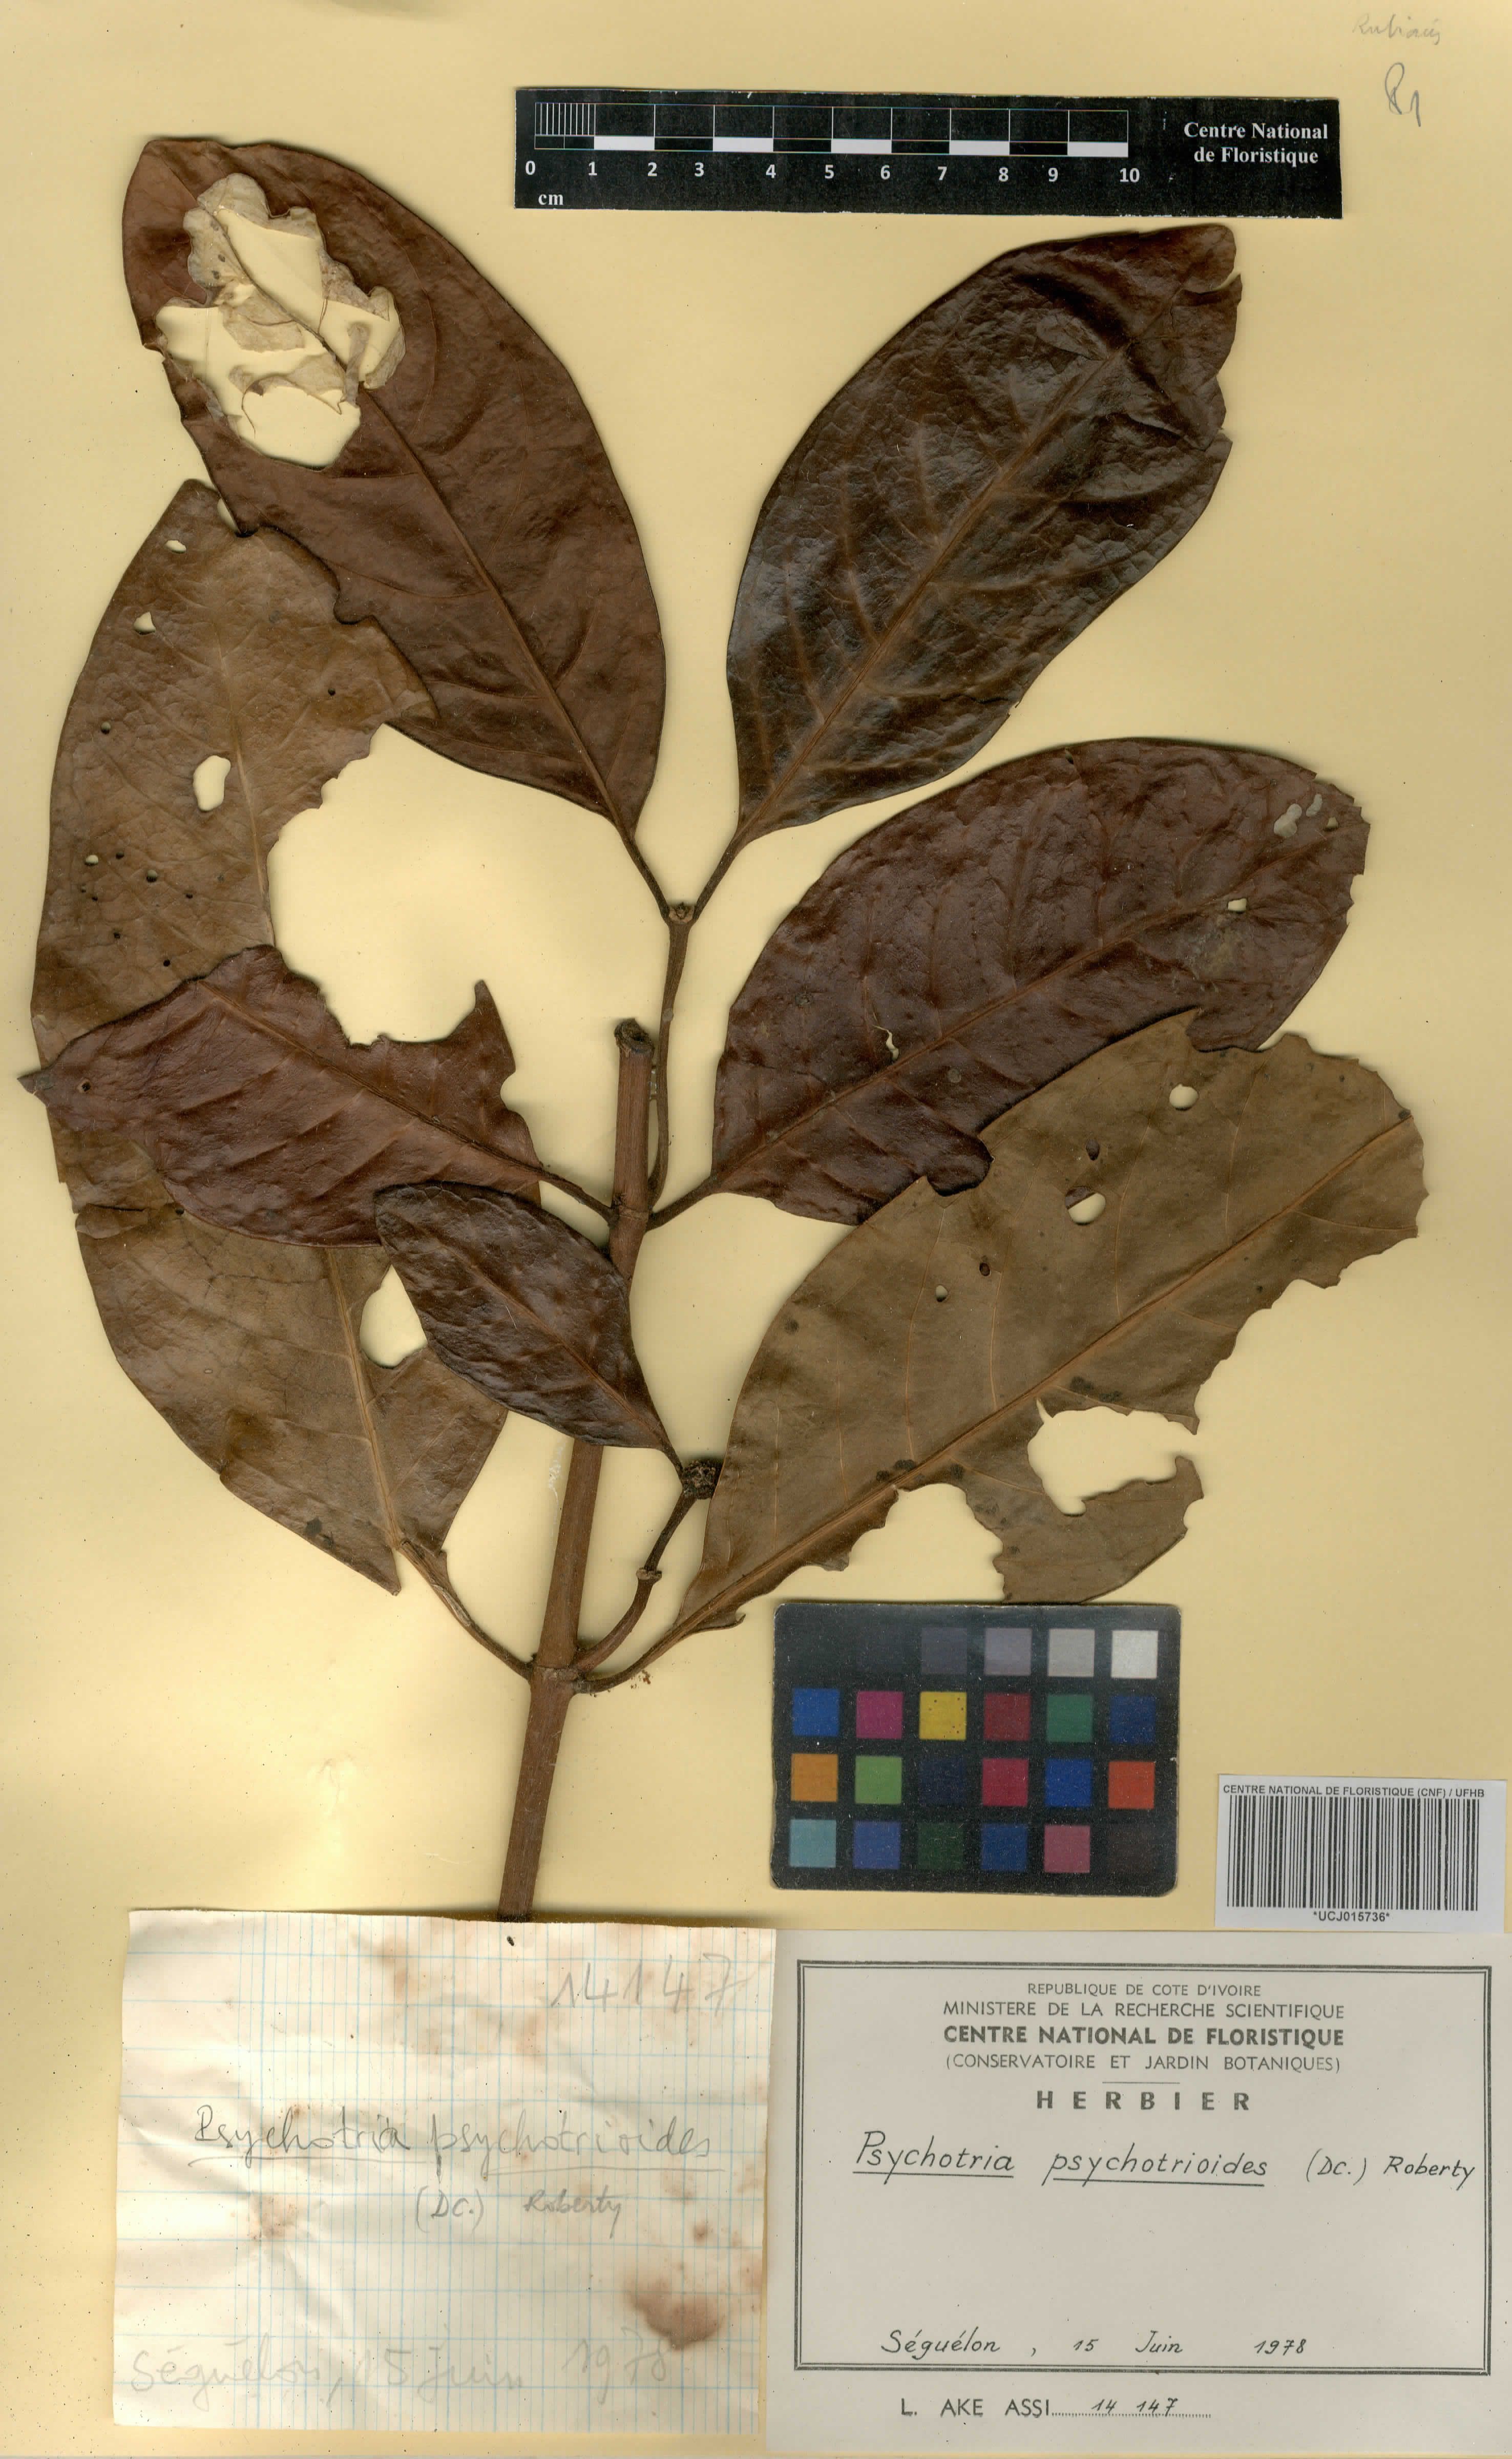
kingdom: Plantae
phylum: Tracheophyta
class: Magnoliopsida
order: Gentianales
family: Rubiaceae
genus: Psychotria
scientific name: Psychotria psychotrioides
